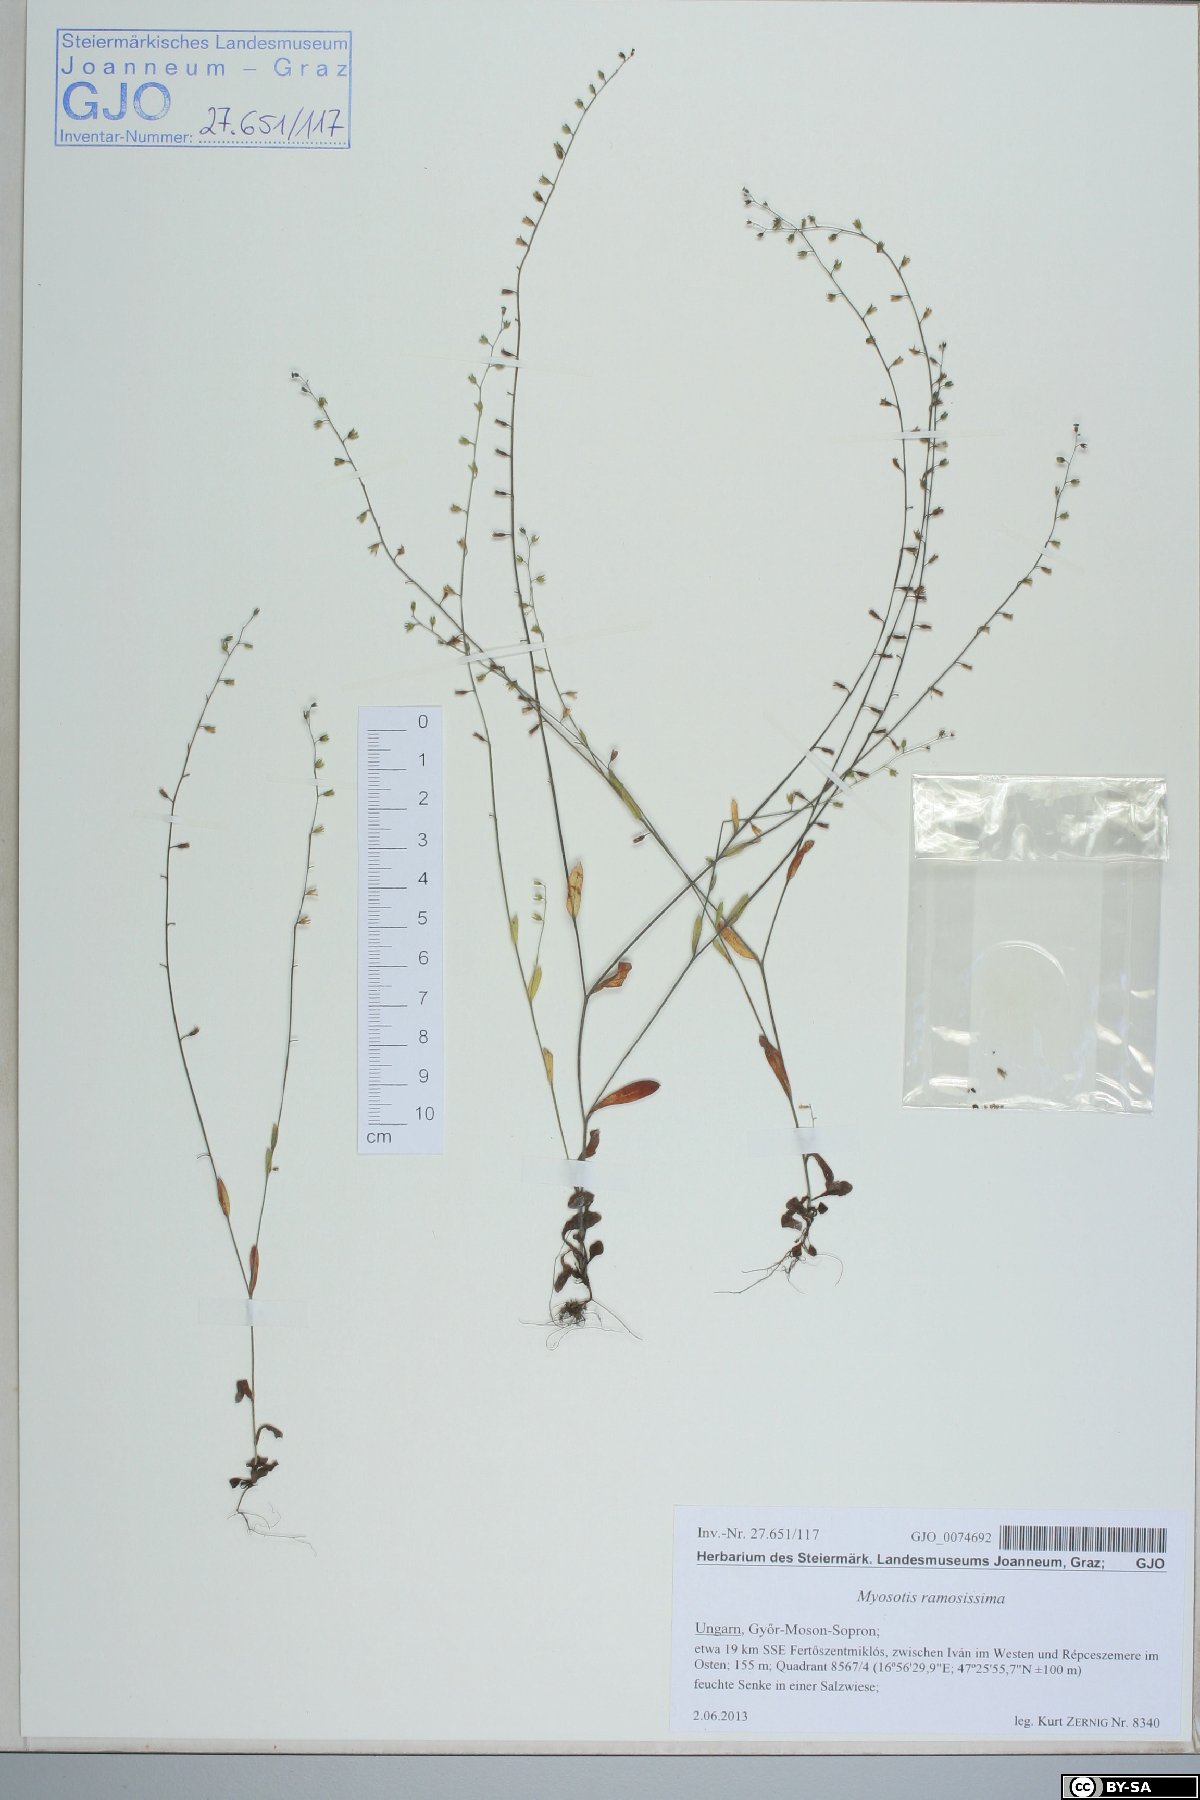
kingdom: Plantae
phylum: Tracheophyta
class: Magnoliopsida
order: Boraginales
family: Boraginaceae
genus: Myosotis
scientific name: Myosotis ramosissima
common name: Early forget-me-not
